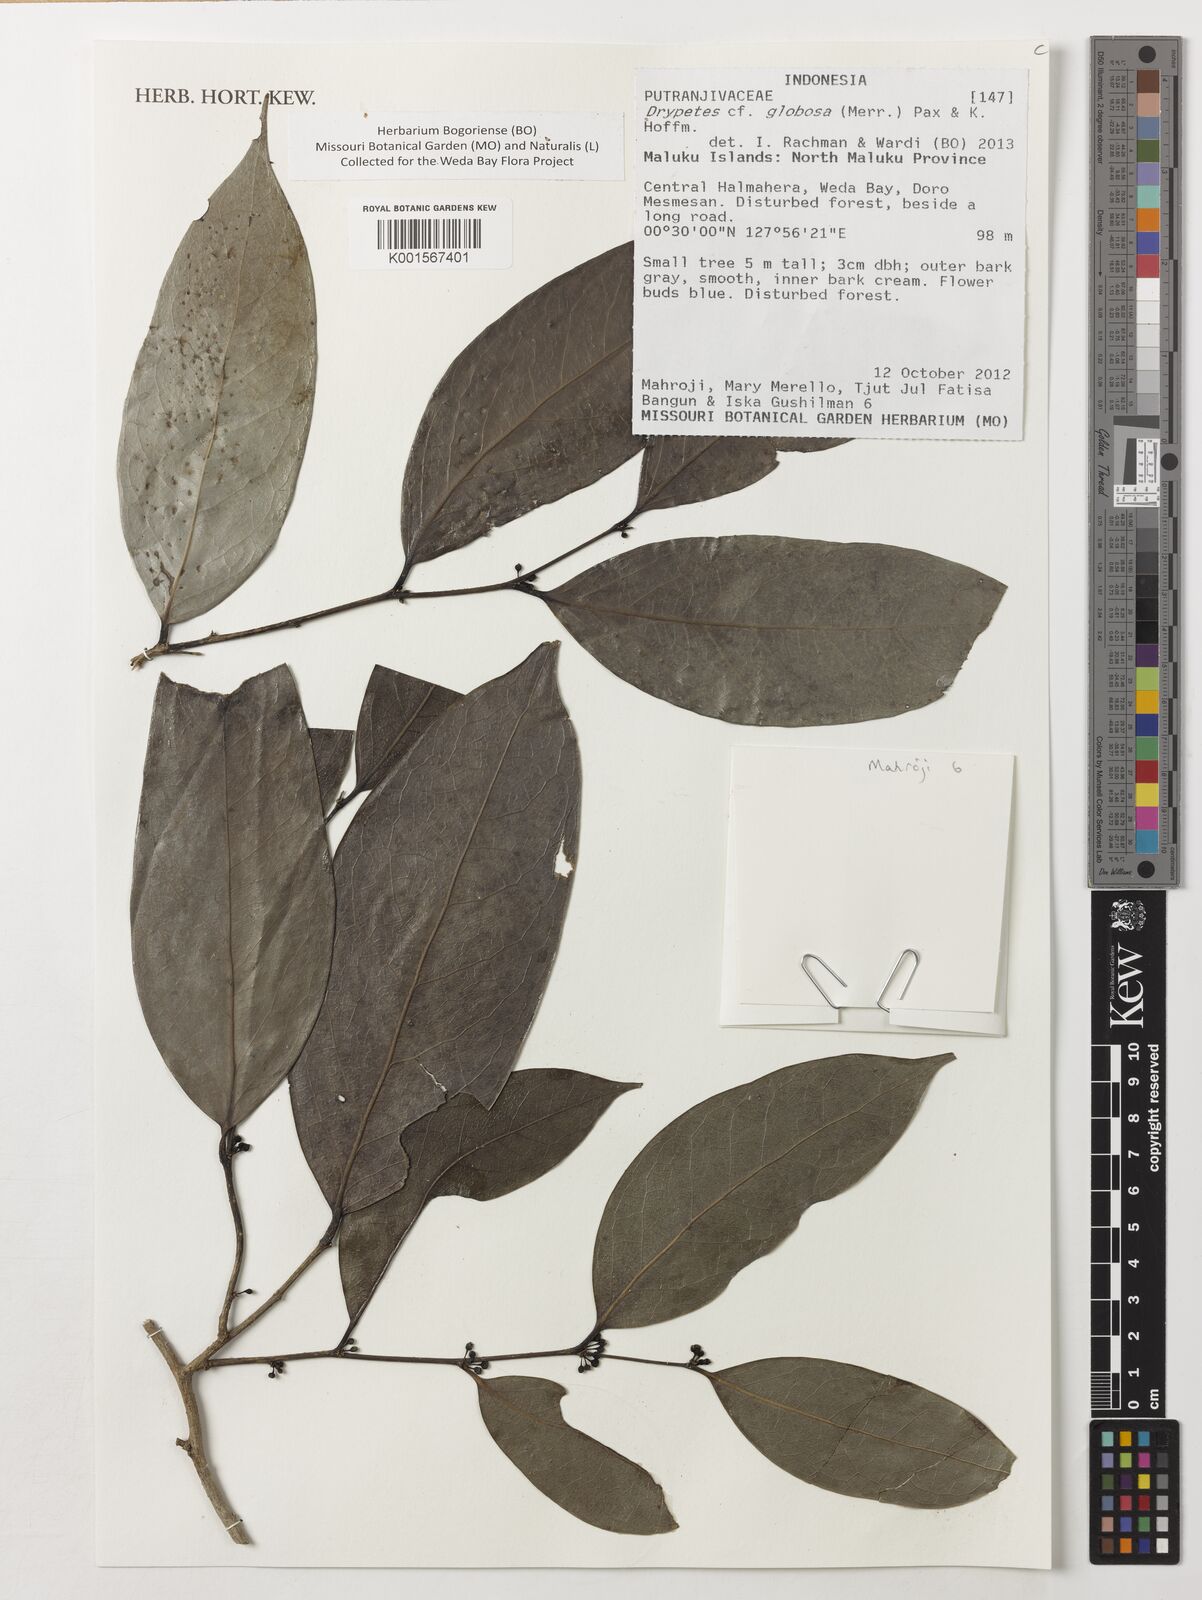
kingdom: Plantae
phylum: Tracheophyta
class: Magnoliopsida
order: Malpighiales
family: Putranjivaceae
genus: Drypetes
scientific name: Drypetes globosa
